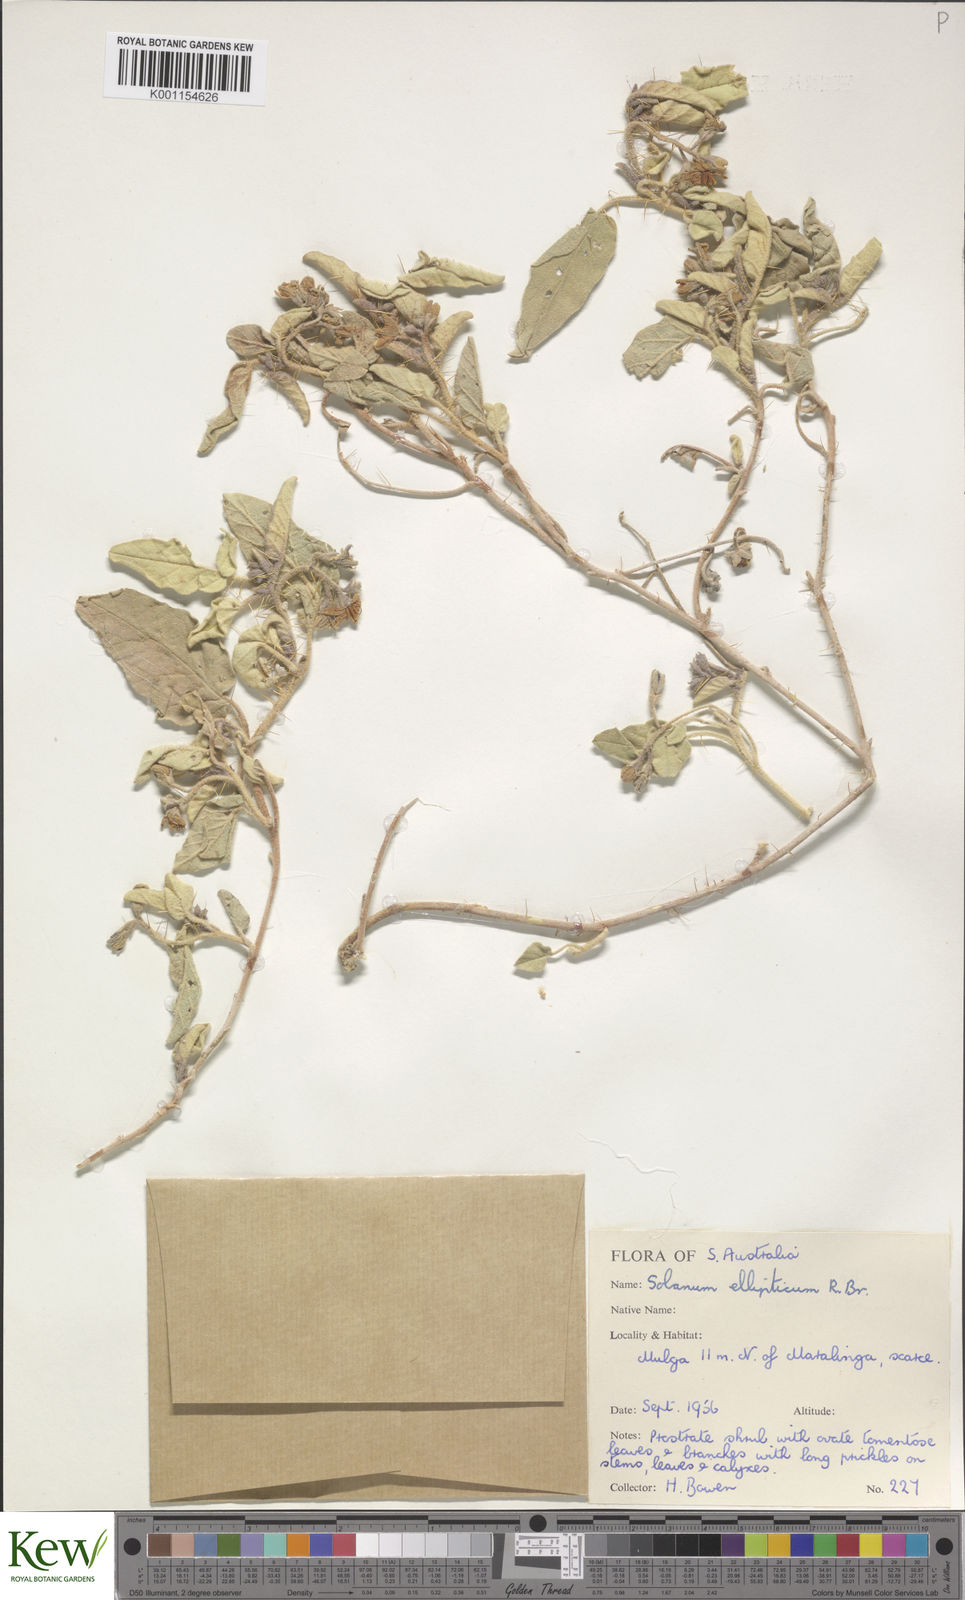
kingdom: Plantae
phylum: Tracheophyta
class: Magnoliopsida
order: Solanales
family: Solanaceae
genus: Solanum
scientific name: Solanum ellipticum
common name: Potato-bush
